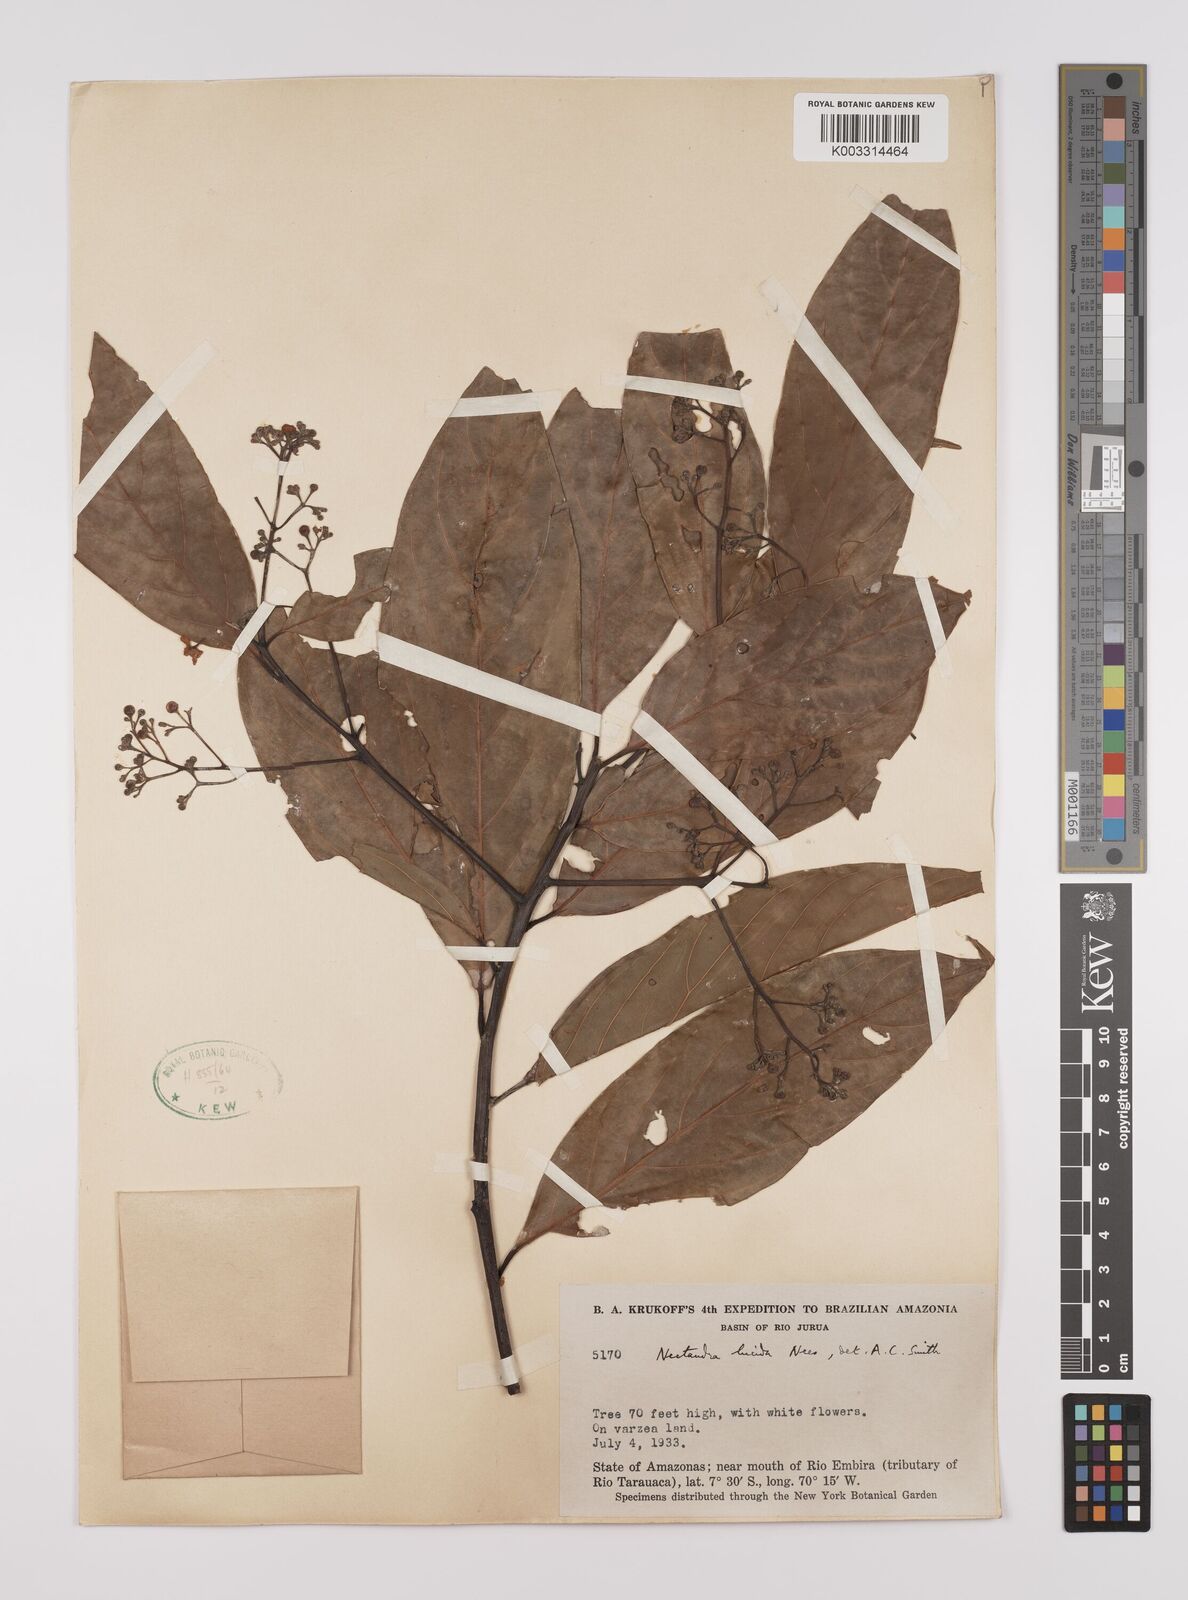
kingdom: Plantae
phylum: Tracheophyta
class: Magnoliopsida
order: Laurales
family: Lauraceae
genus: Endlicheria
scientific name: Endlicheria paniculata
